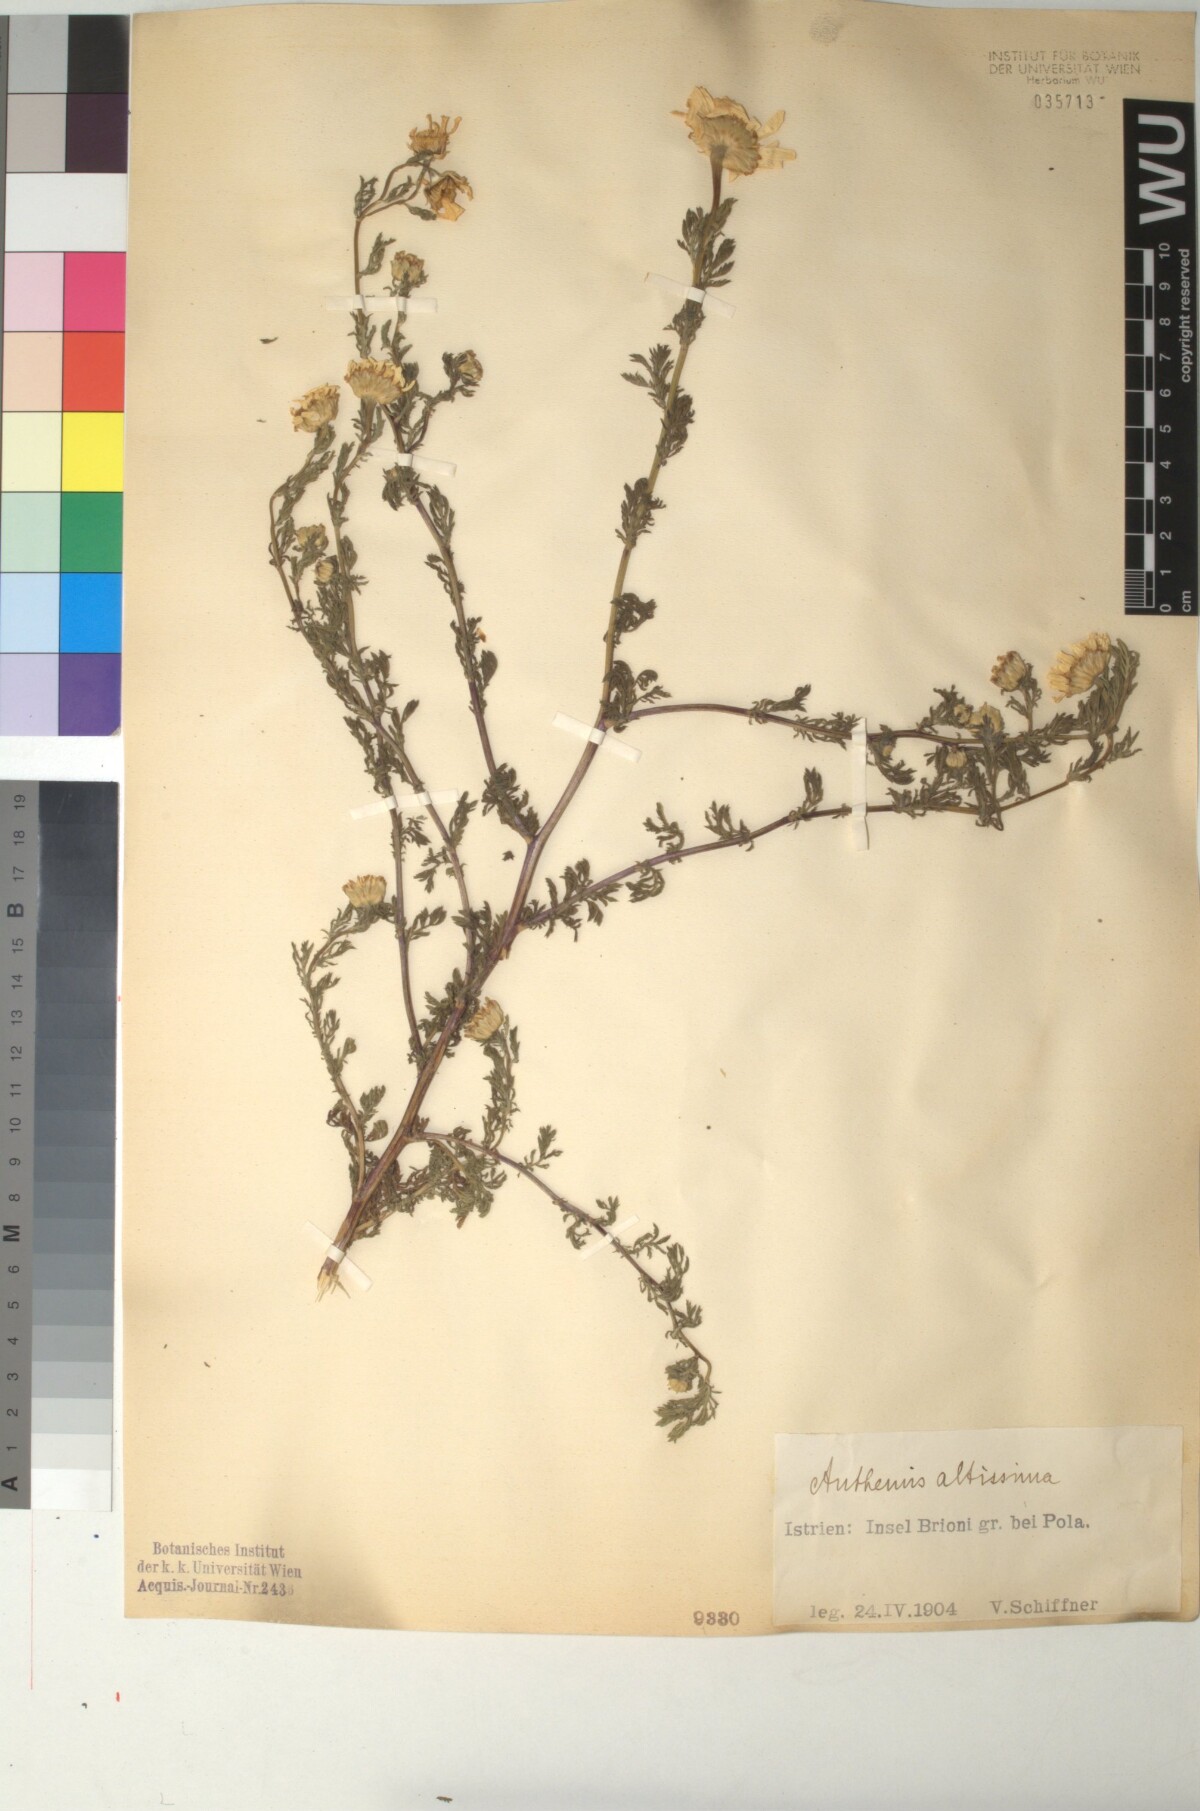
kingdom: Plantae
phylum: Tracheophyta
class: Magnoliopsida
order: Asterales
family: Asteraceae
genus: Cota
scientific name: Cota altissima
